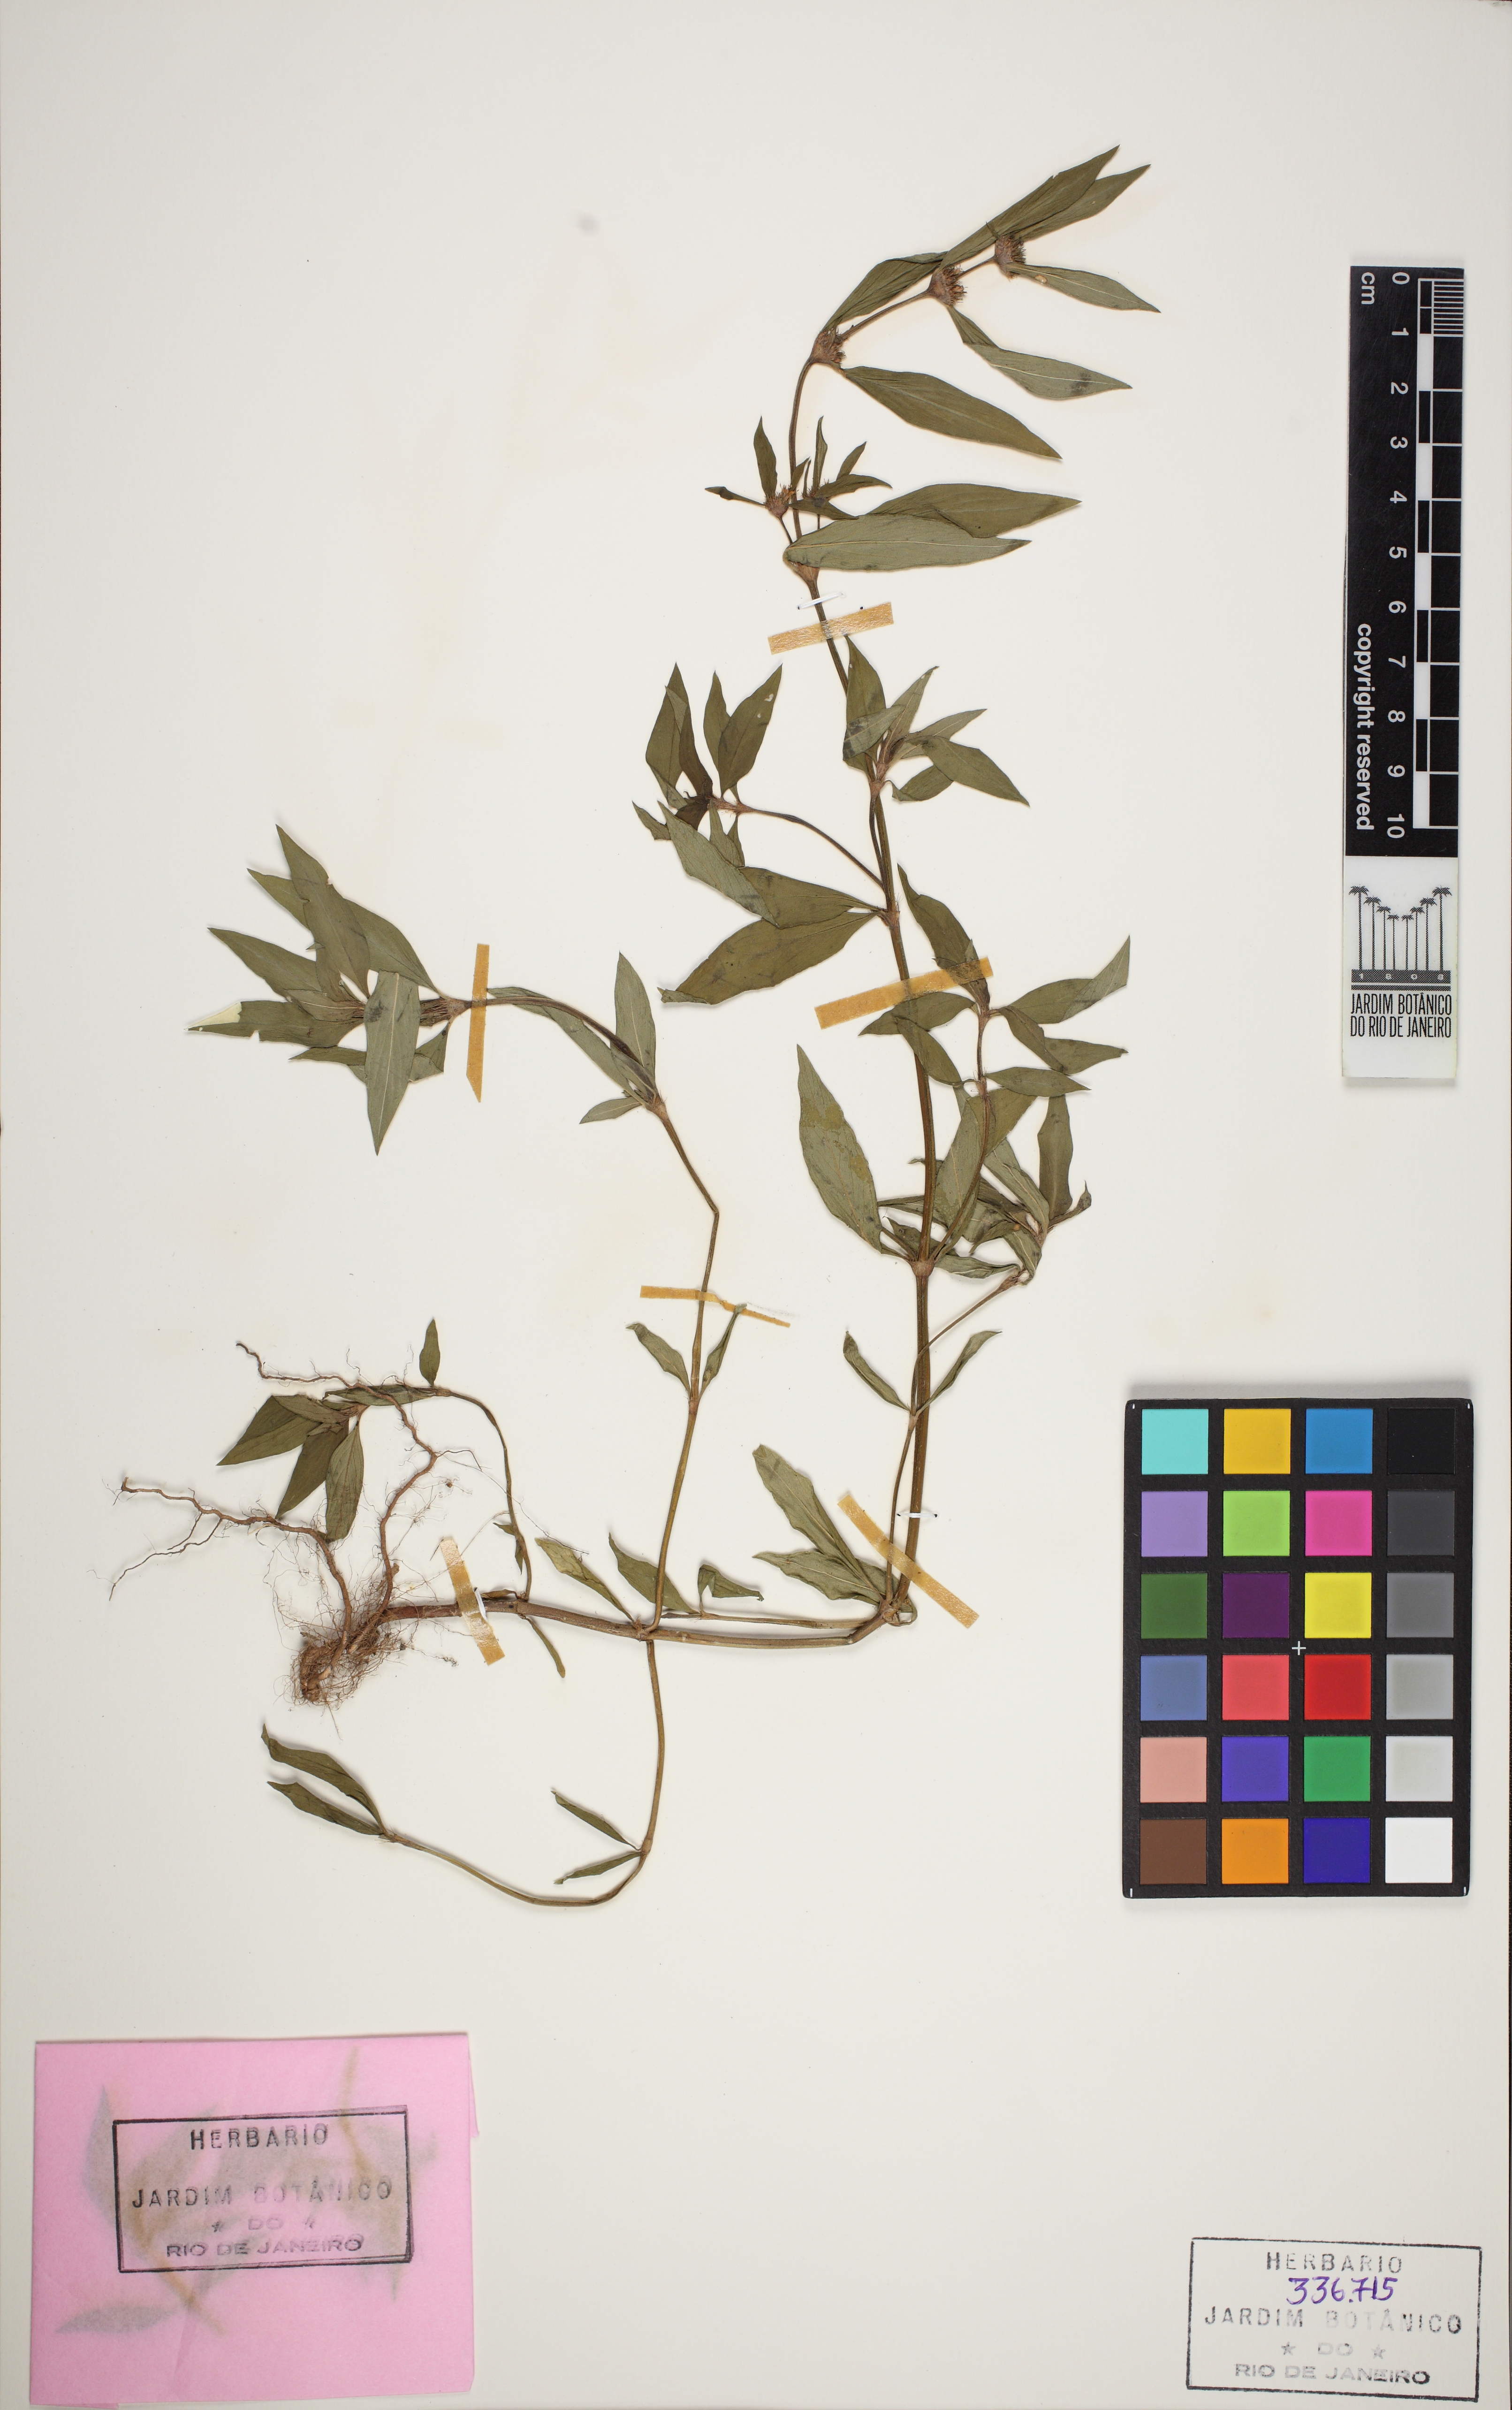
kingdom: Plantae
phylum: Tracheophyta
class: Magnoliopsida
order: Gentianales
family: Rubiaceae
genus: Spermacoce
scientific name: Spermacoce ocymifolia
